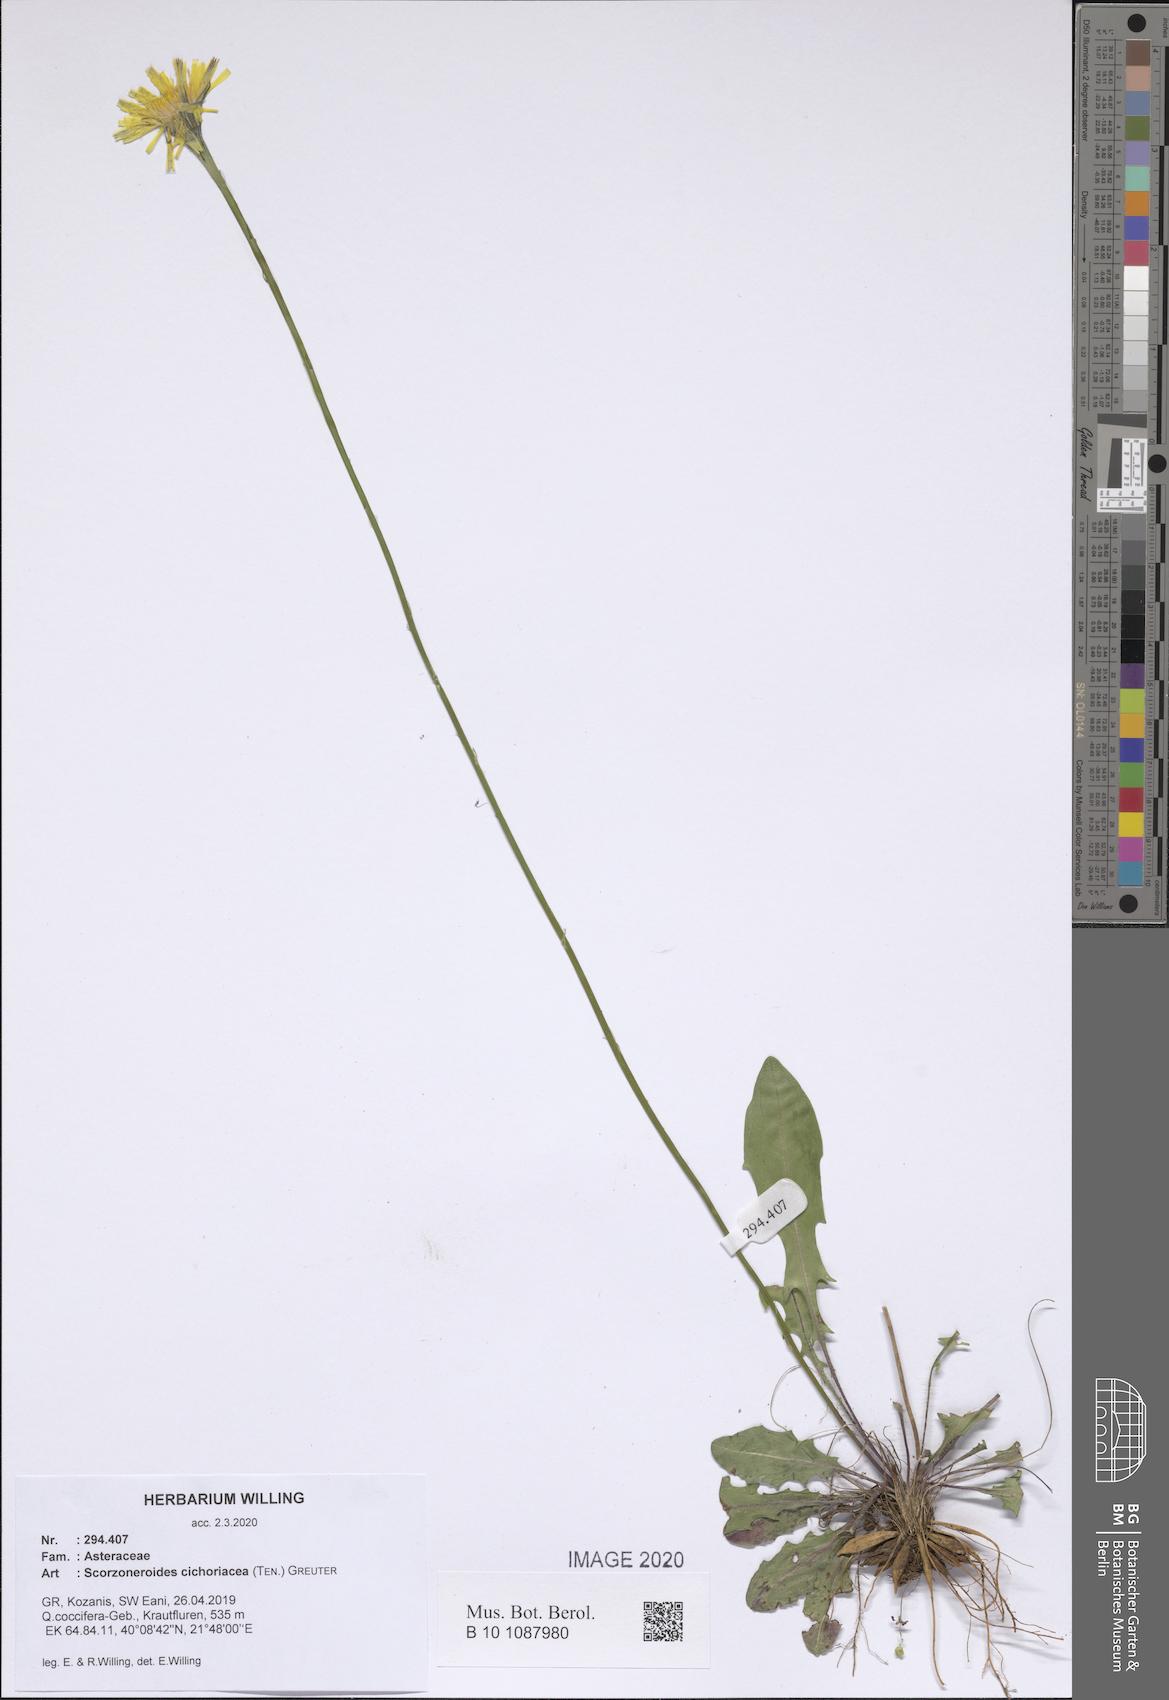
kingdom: Plantae
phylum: Tracheophyta
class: Magnoliopsida
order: Asterales
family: Asteraceae
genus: Scorzoneroides
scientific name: Scorzoneroides cichoriacea
